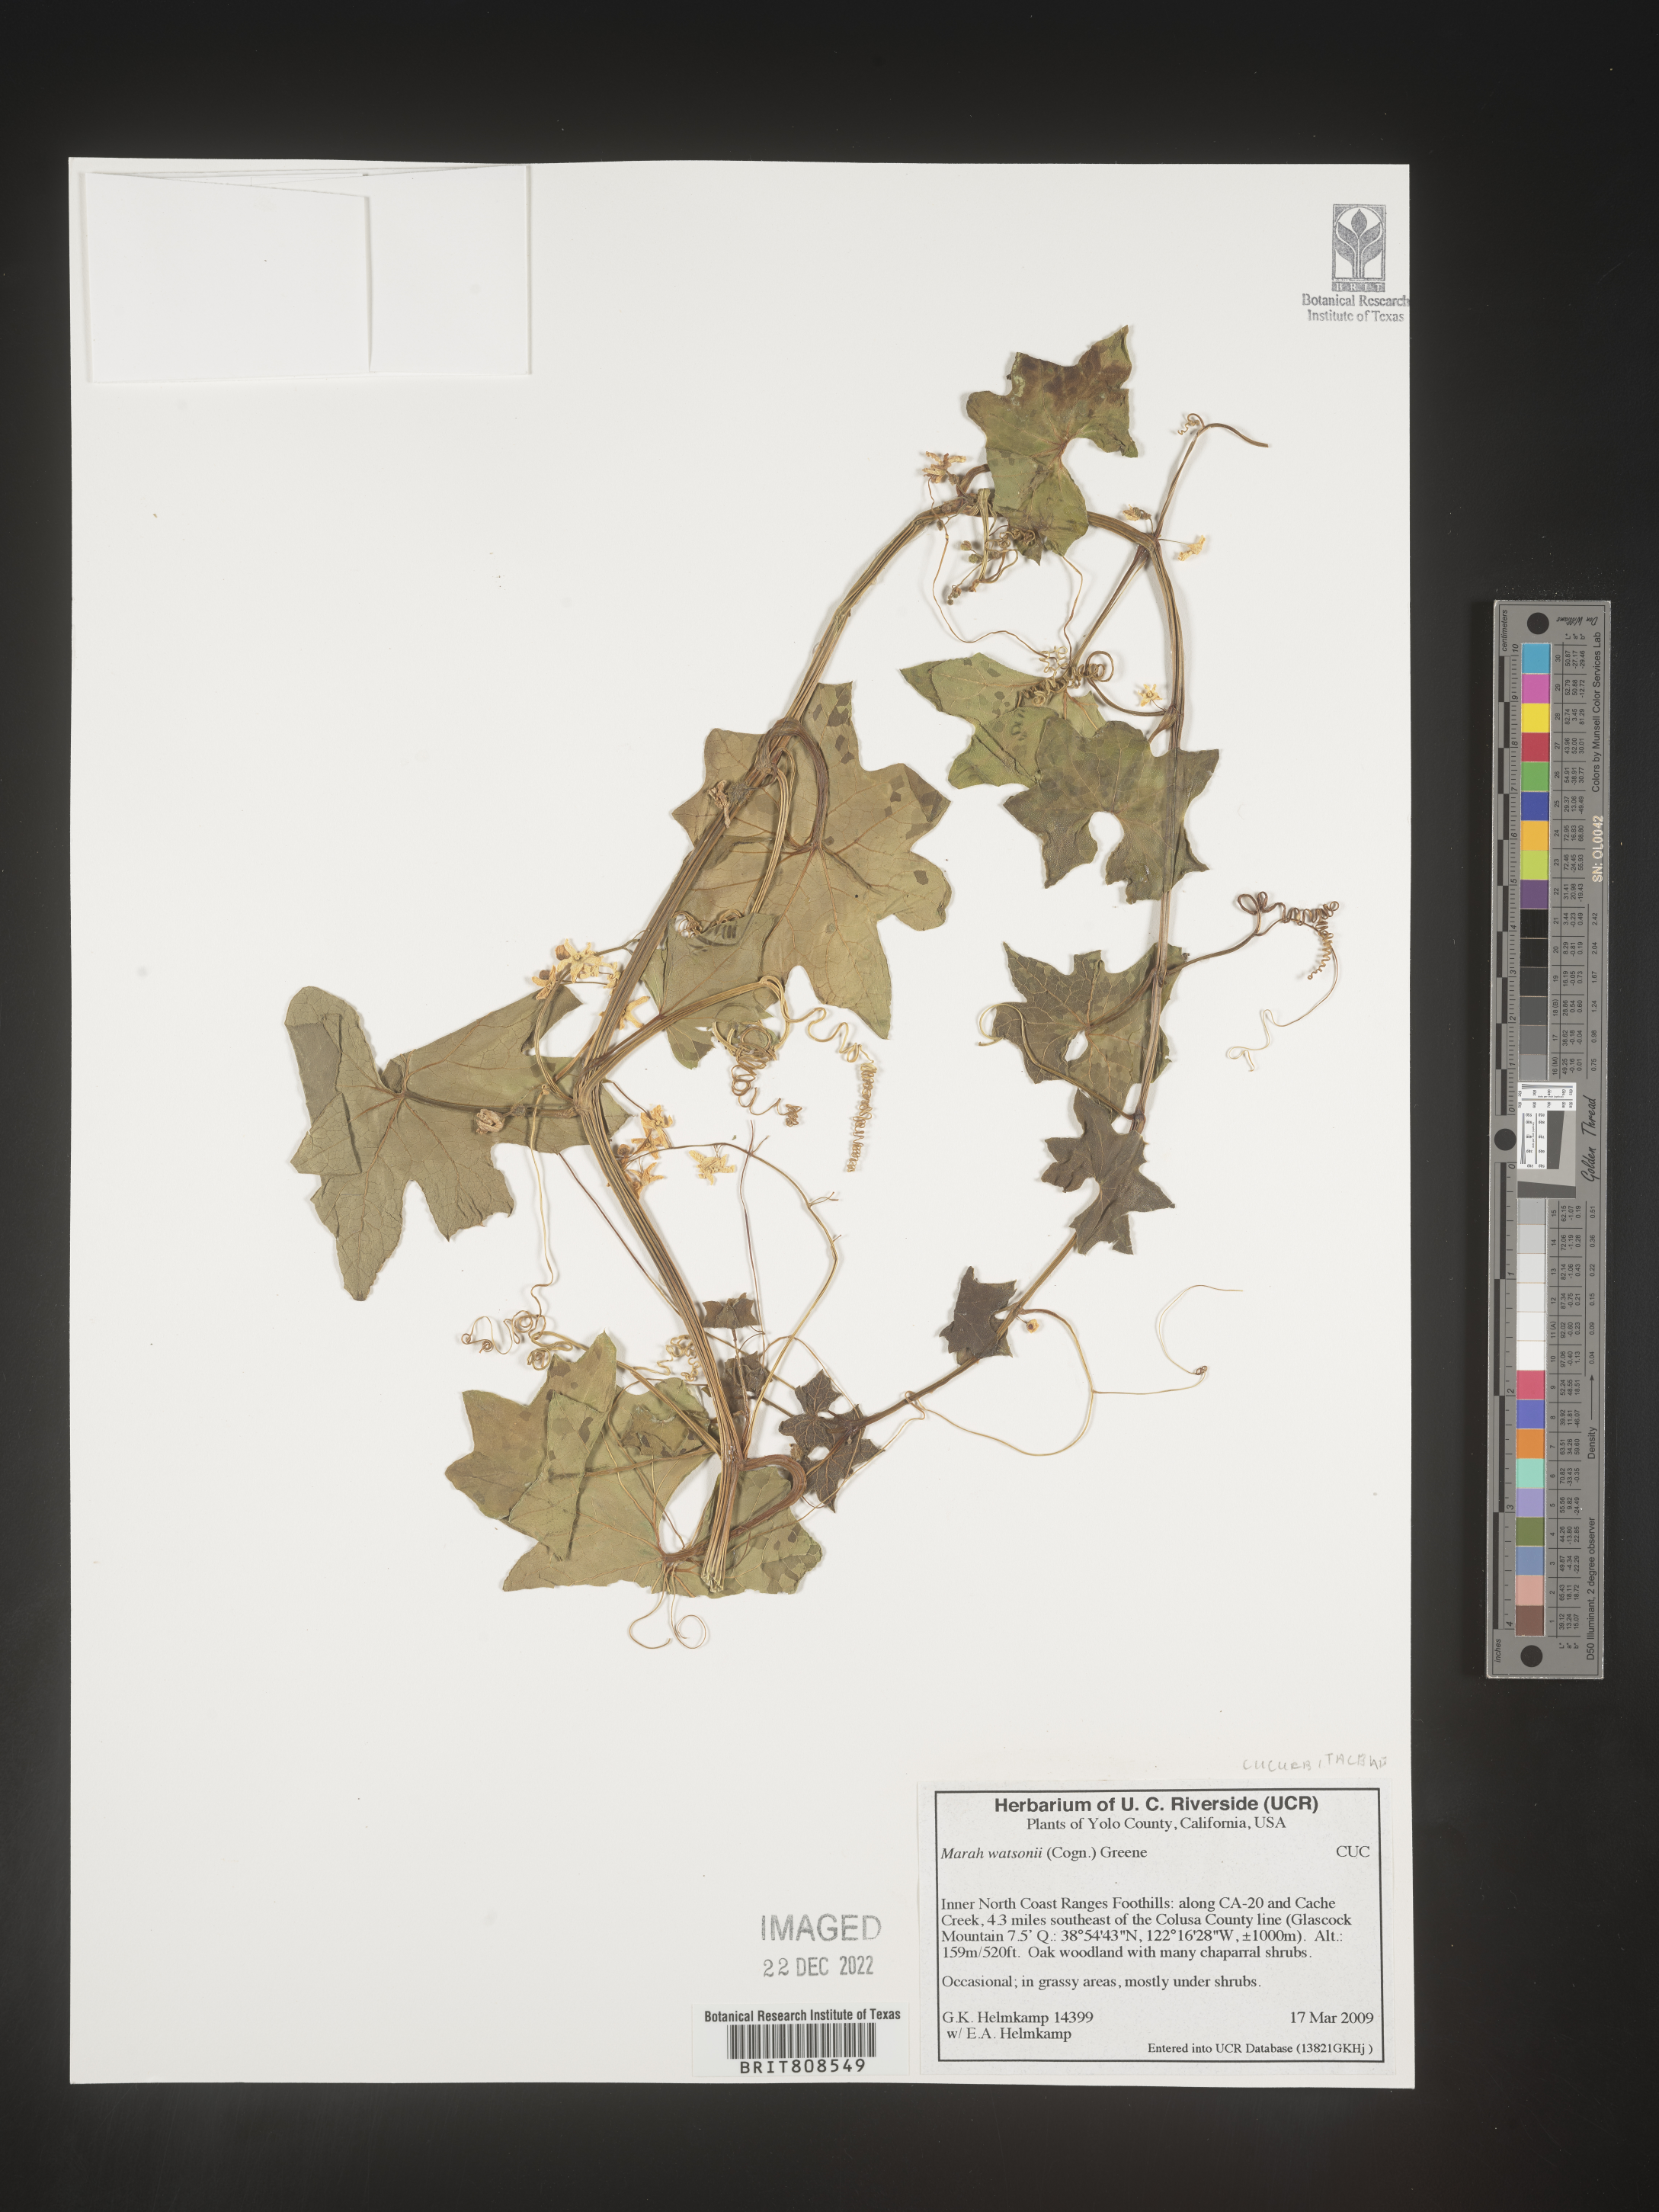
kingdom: Plantae
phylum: Tracheophyta
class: Magnoliopsida
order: Cucurbitales
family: Cucurbitaceae
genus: Marah
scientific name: Marah
